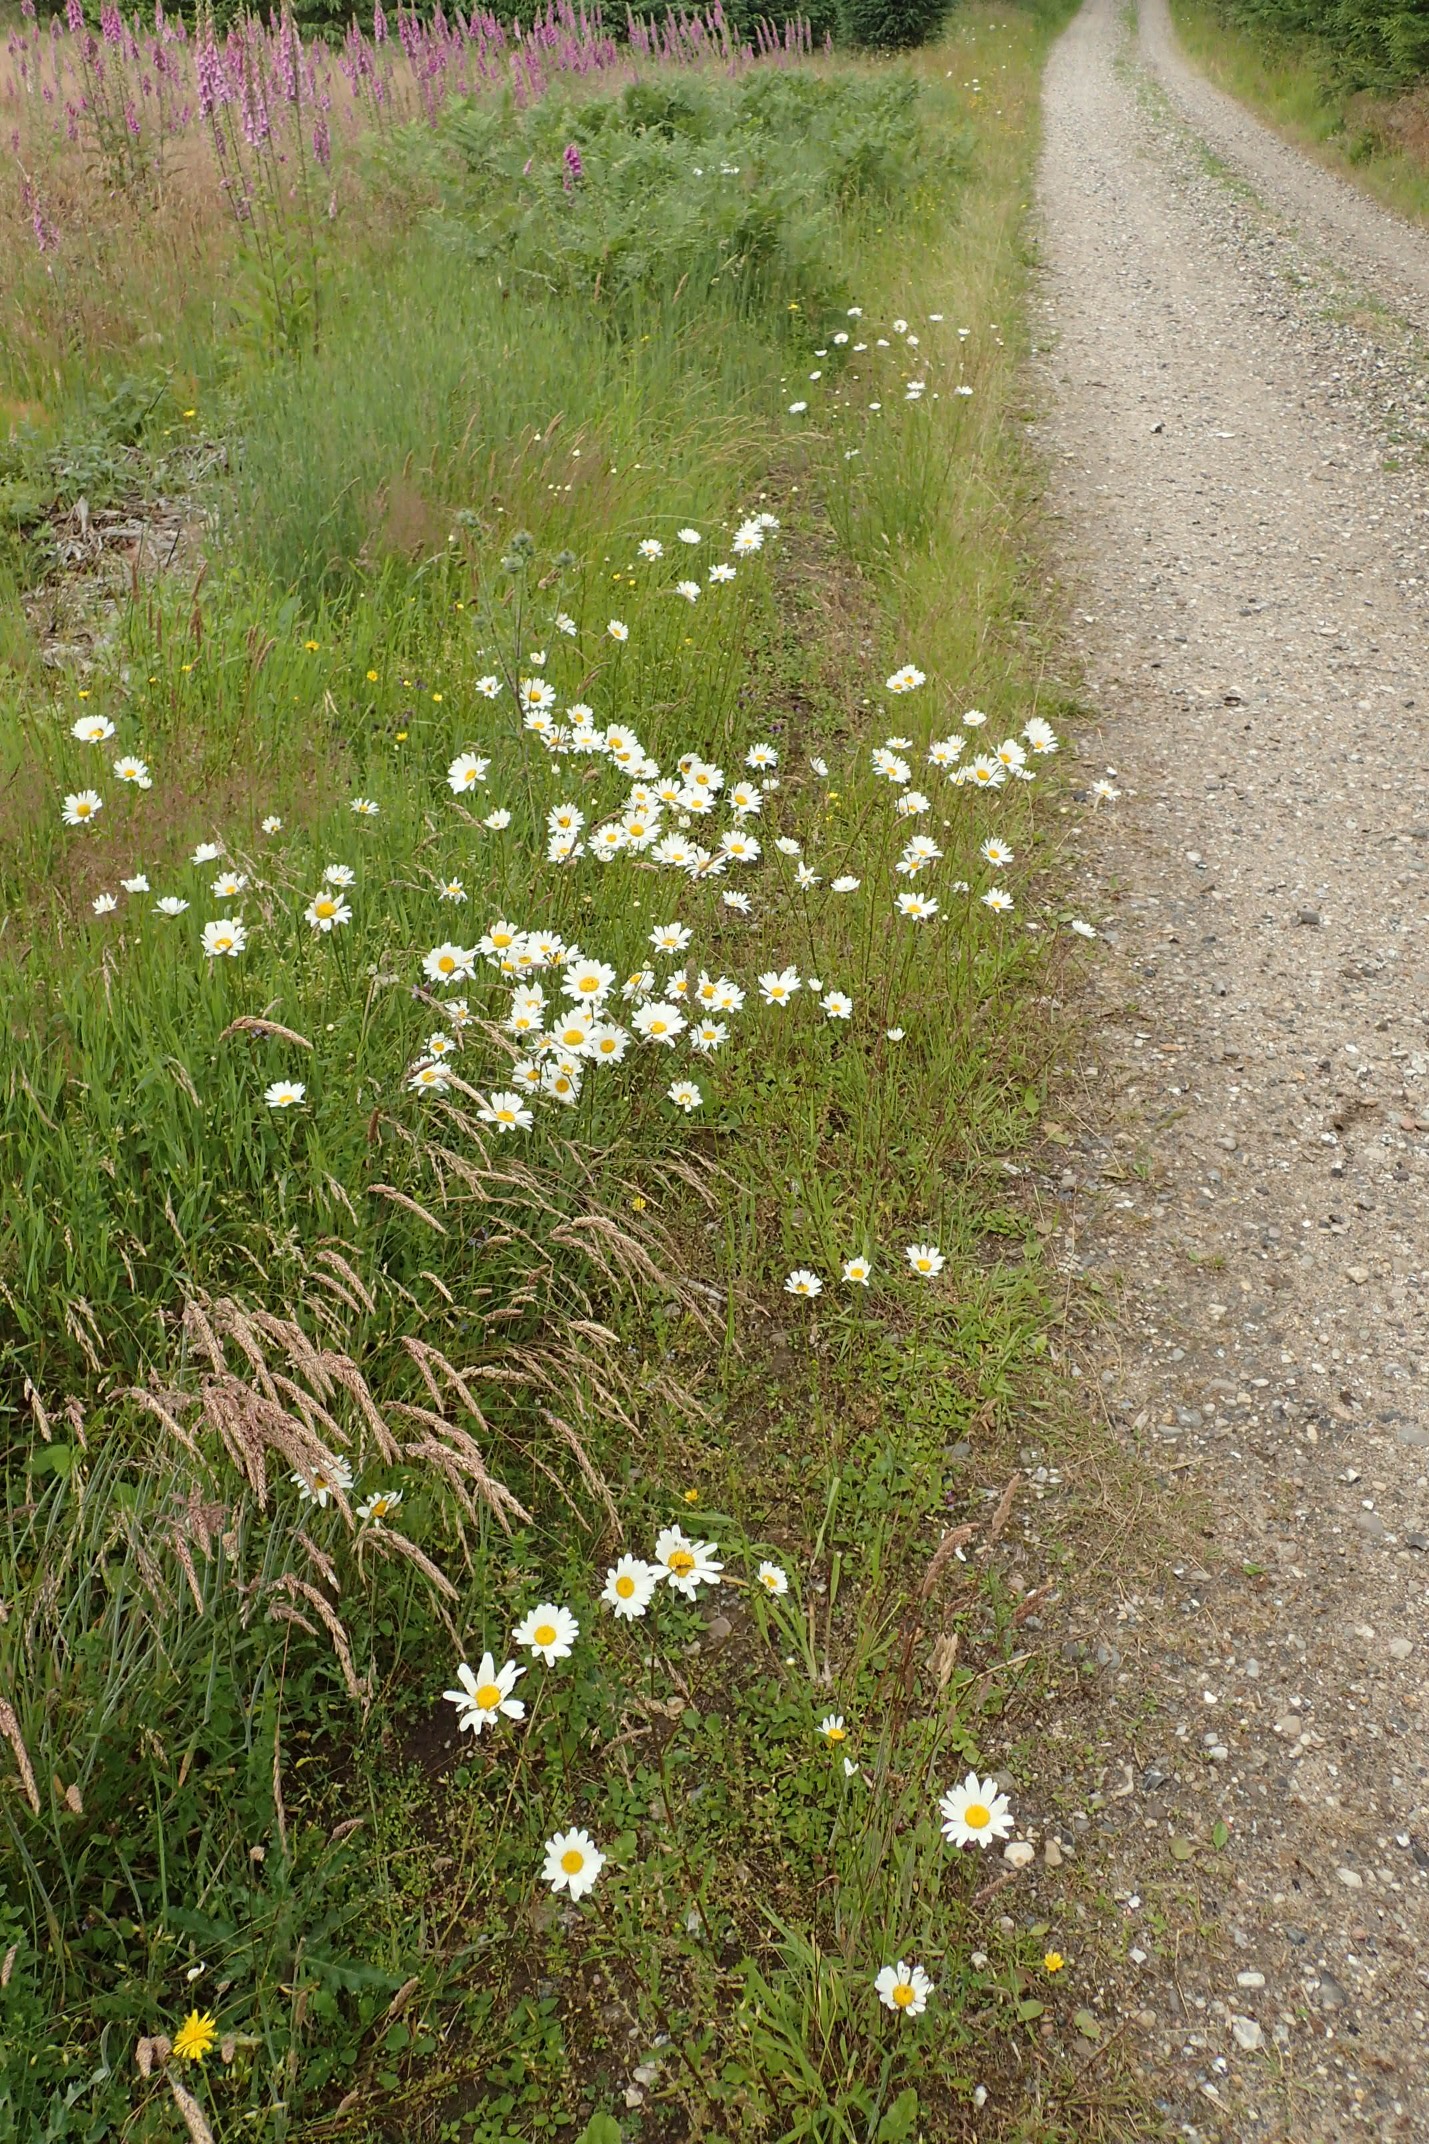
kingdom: Plantae
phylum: Tracheophyta
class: Magnoliopsida
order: Asterales
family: Asteraceae
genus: Leucanthemum
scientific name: Leucanthemum vulgare
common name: Hvid okseøje
